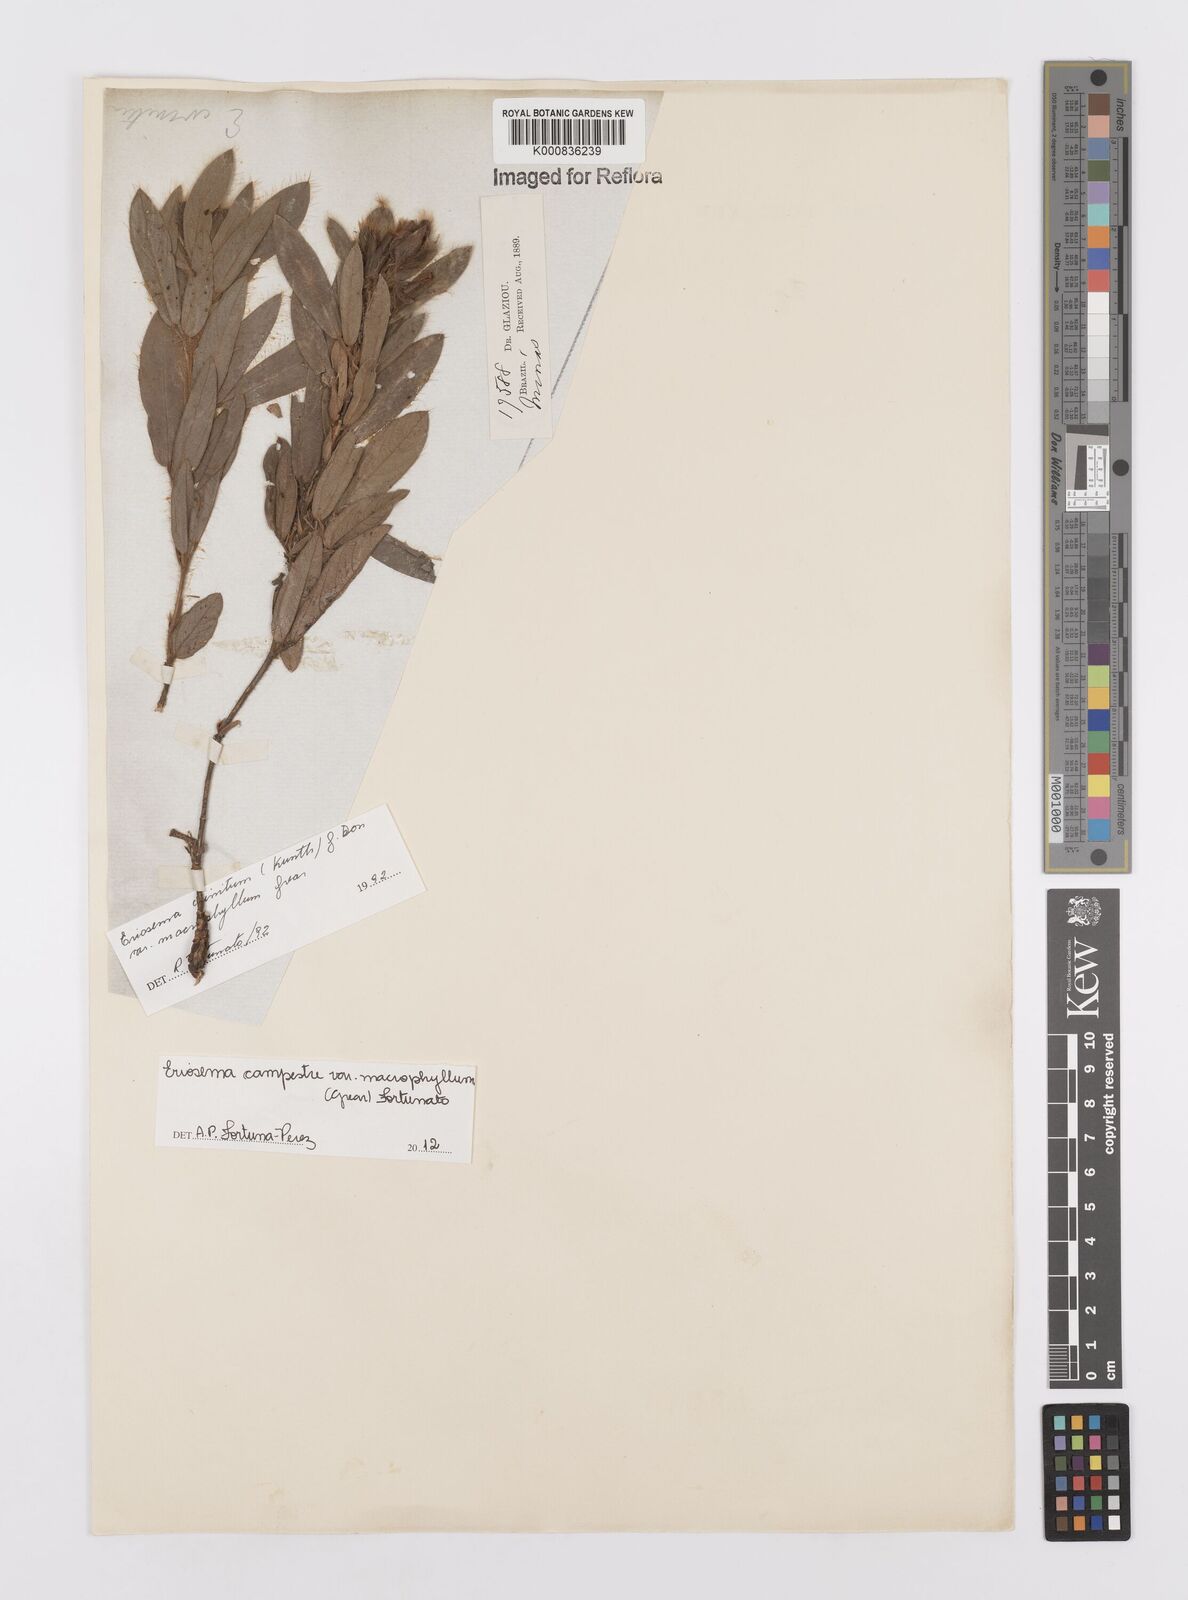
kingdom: Plantae
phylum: Tracheophyta
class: Magnoliopsida
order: Fabales
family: Fabaceae
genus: Eriosema
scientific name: Eriosema campestre
